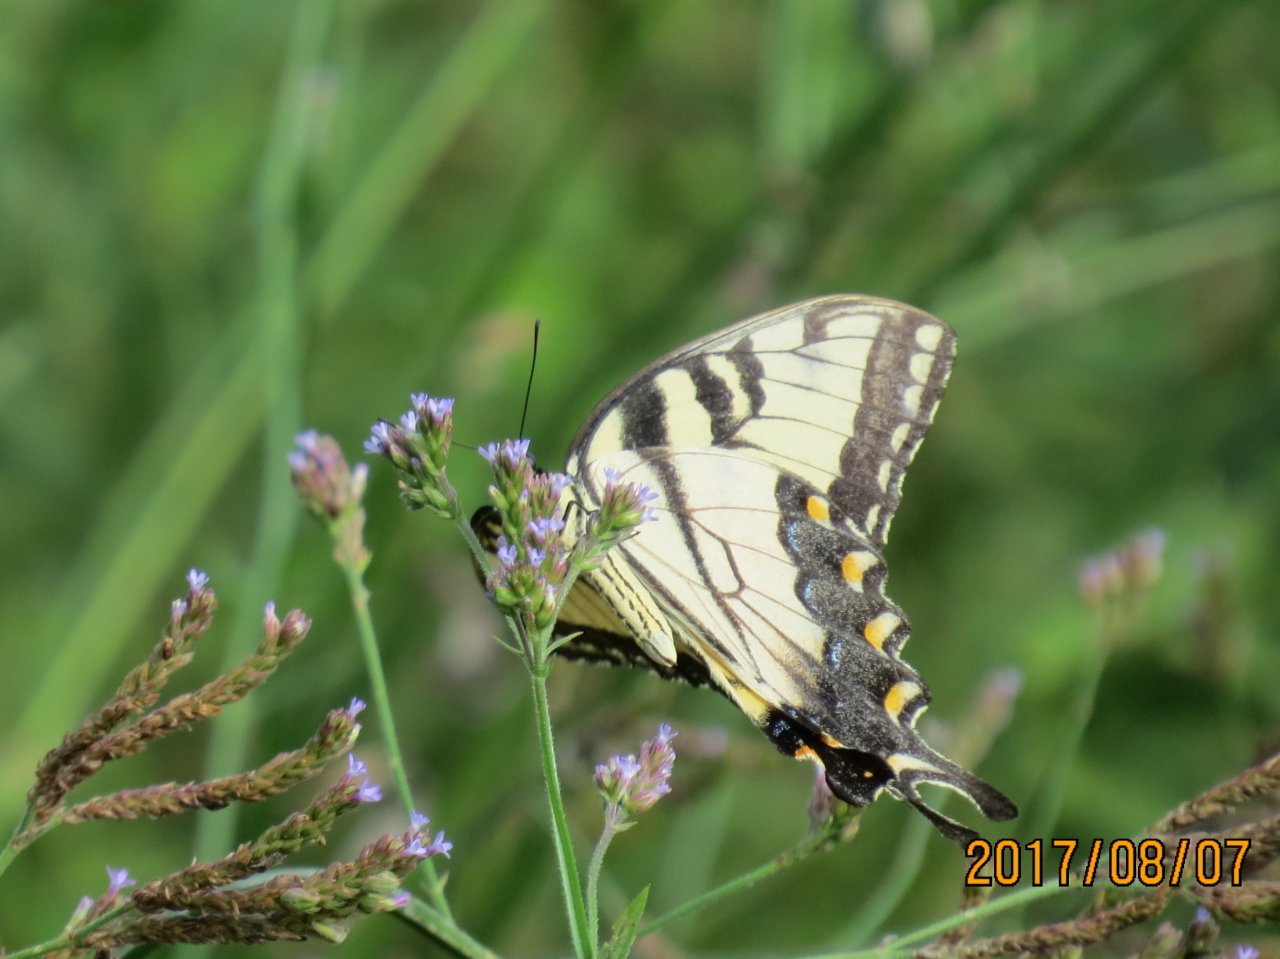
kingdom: Animalia
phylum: Arthropoda
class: Insecta
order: Lepidoptera
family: Papilionidae
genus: Pterourus
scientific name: Pterourus glaucus
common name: Eastern Tiger Swallowtail
